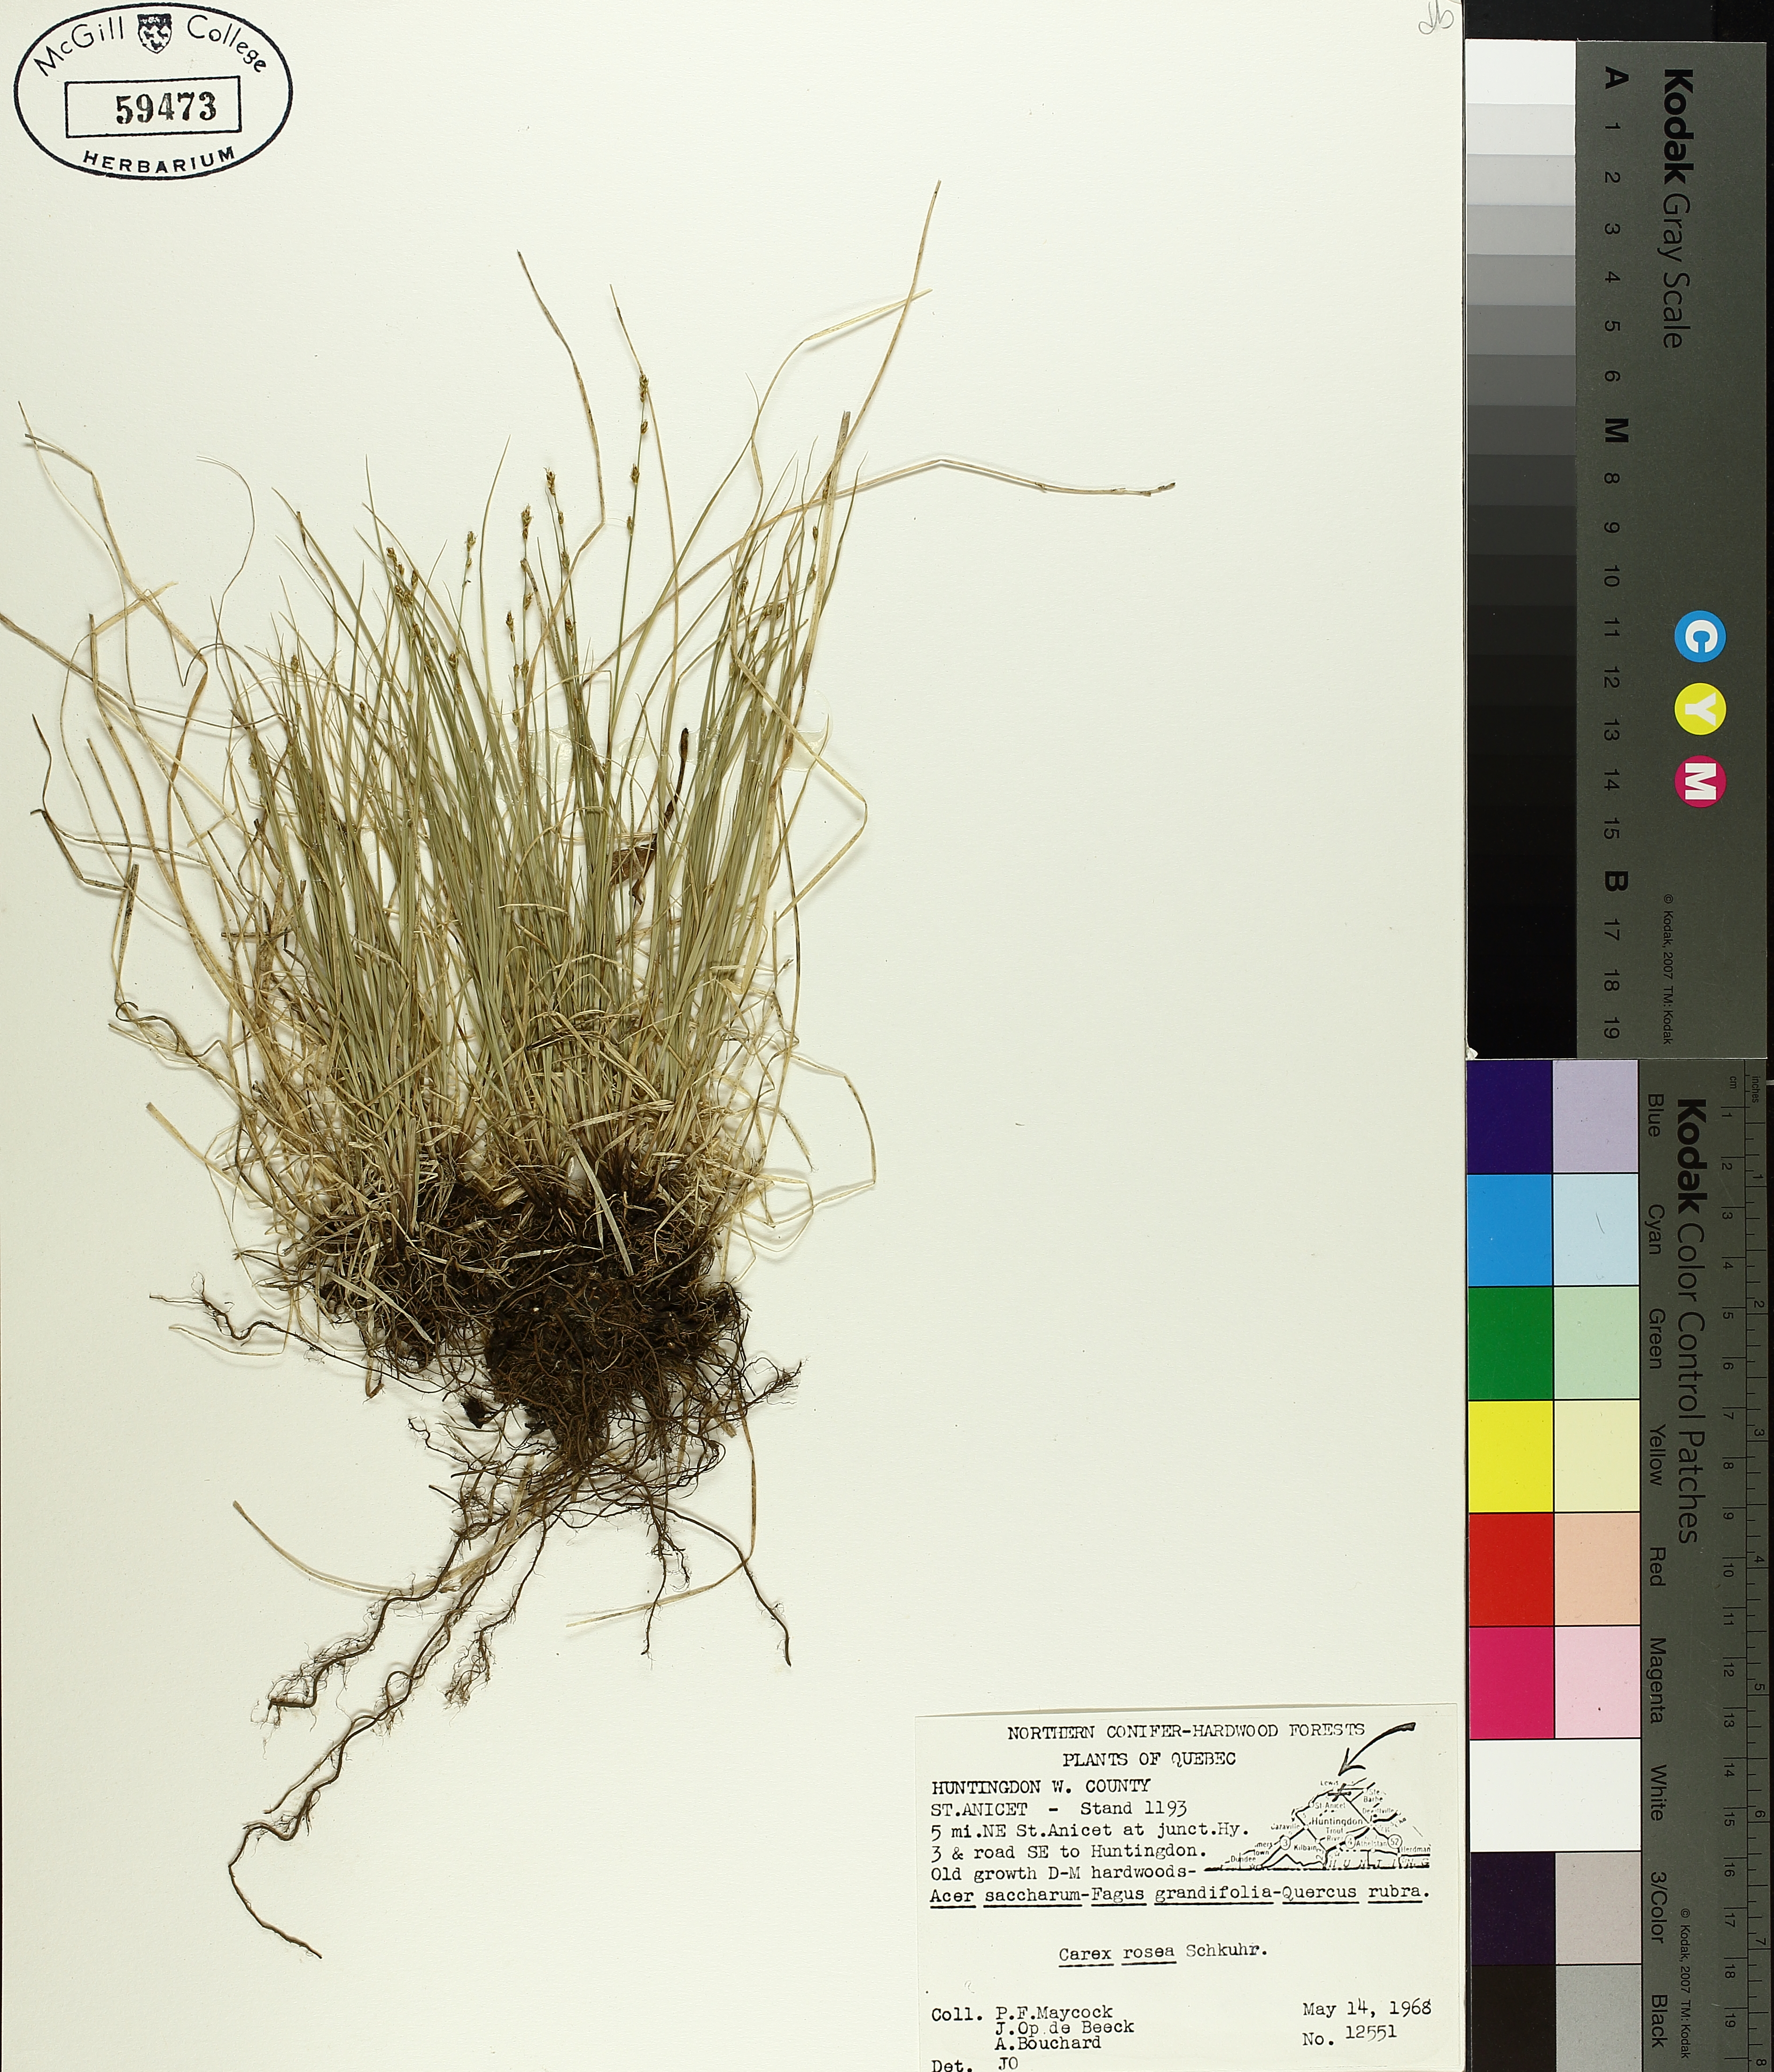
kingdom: Plantae
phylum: Tracheophyta
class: Liliopsida
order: Poales
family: Cyperaceae
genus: Carex
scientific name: Carex rosea
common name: Curly-styled wood sedge
